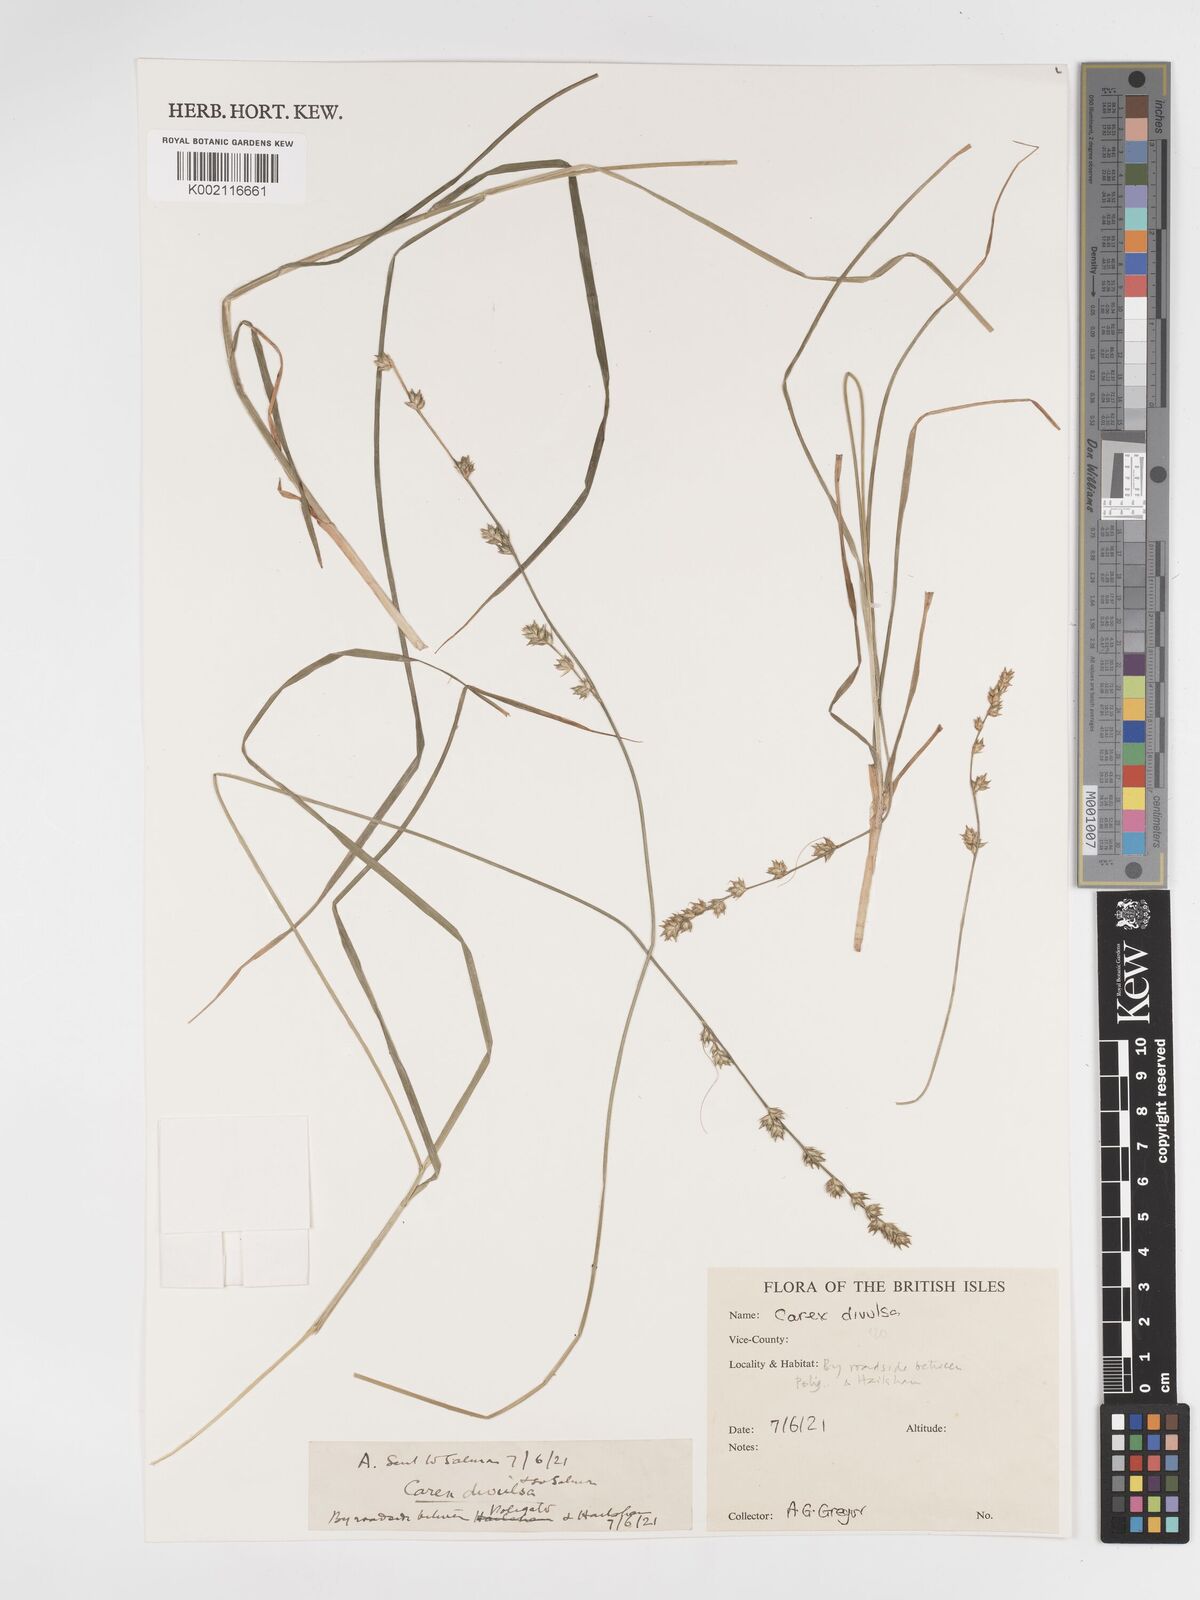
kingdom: Plantae
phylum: Tracheophyta
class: Liliopsida
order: Poales
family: Cyperaceae
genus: Carex
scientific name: Carex divulsa
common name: Grassland sedge
